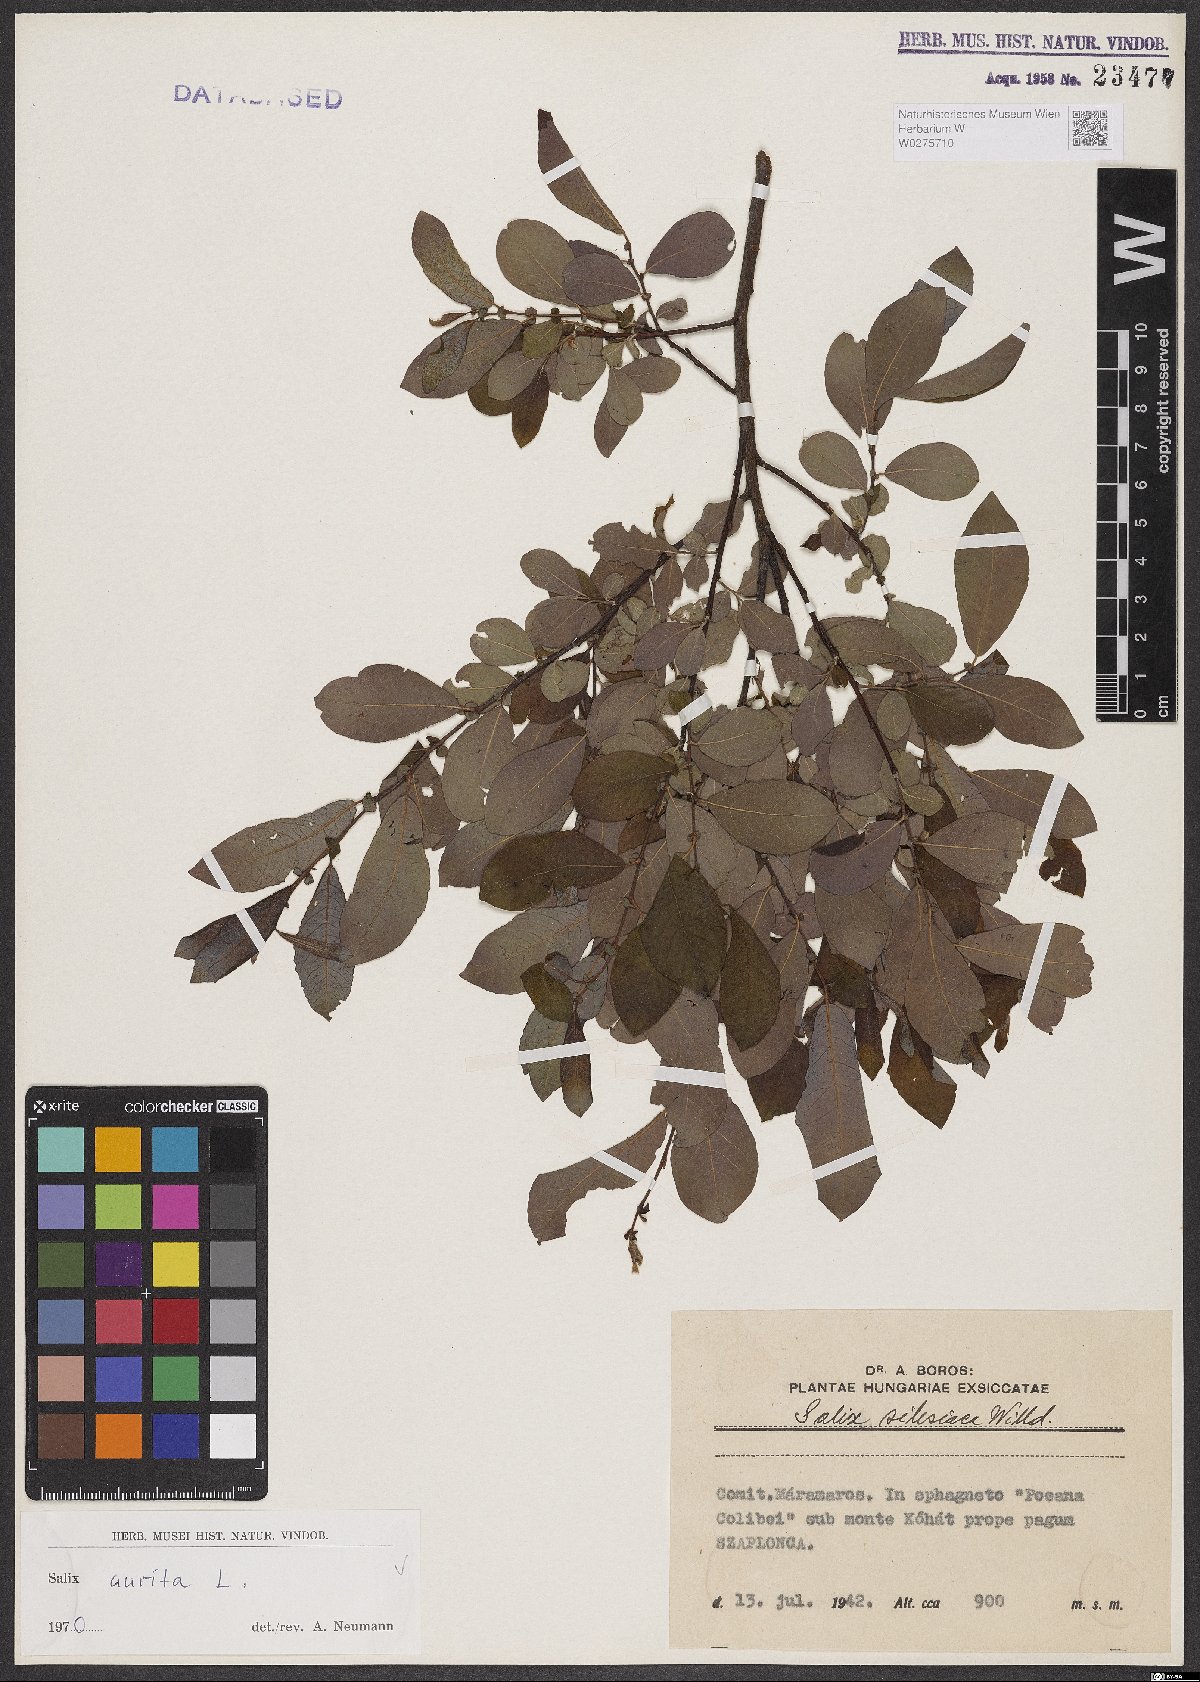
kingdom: Plantae
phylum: Tracheophyta
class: Magnoliopsida
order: Malpighiales
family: Salicaceae
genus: Salix
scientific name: Salix aurita
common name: Eared willow
